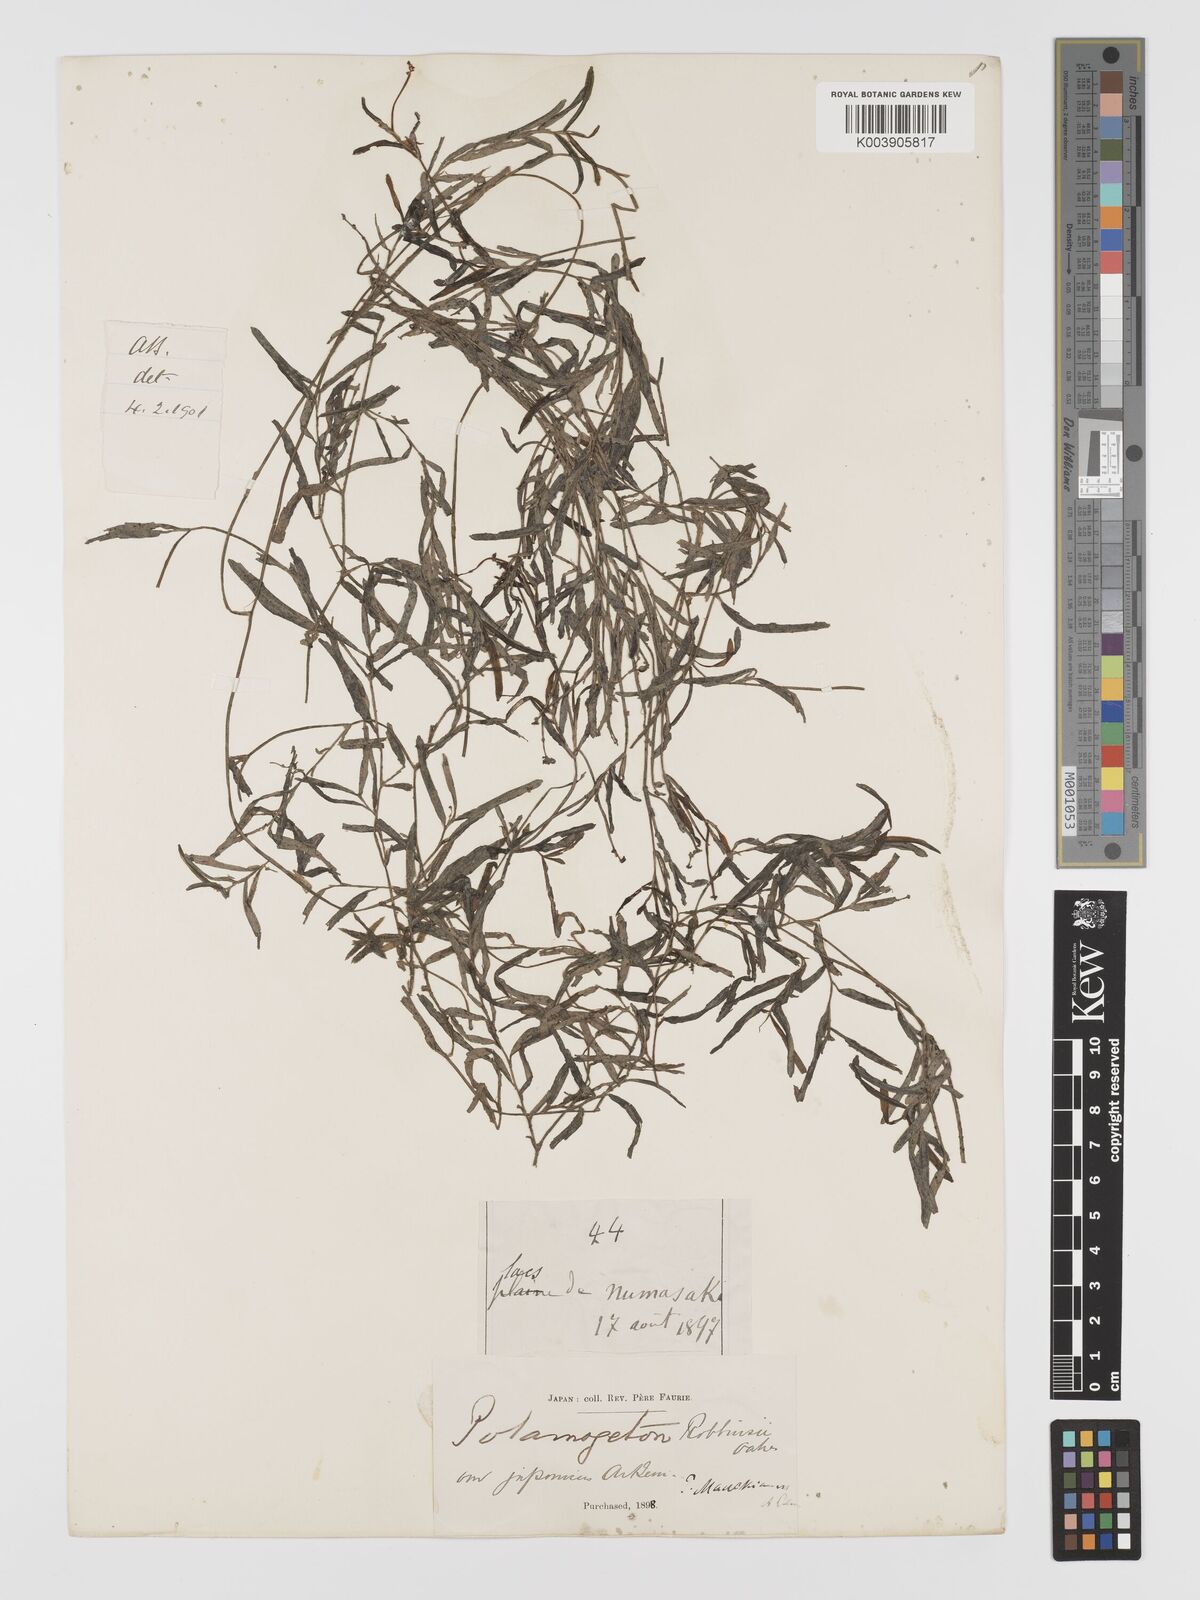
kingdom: Plantae
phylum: Tracheophyta
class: Liliopsida
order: Alismatales
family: Potamogetonaceae
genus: Potamogeton
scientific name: Potamogeton maackianus
